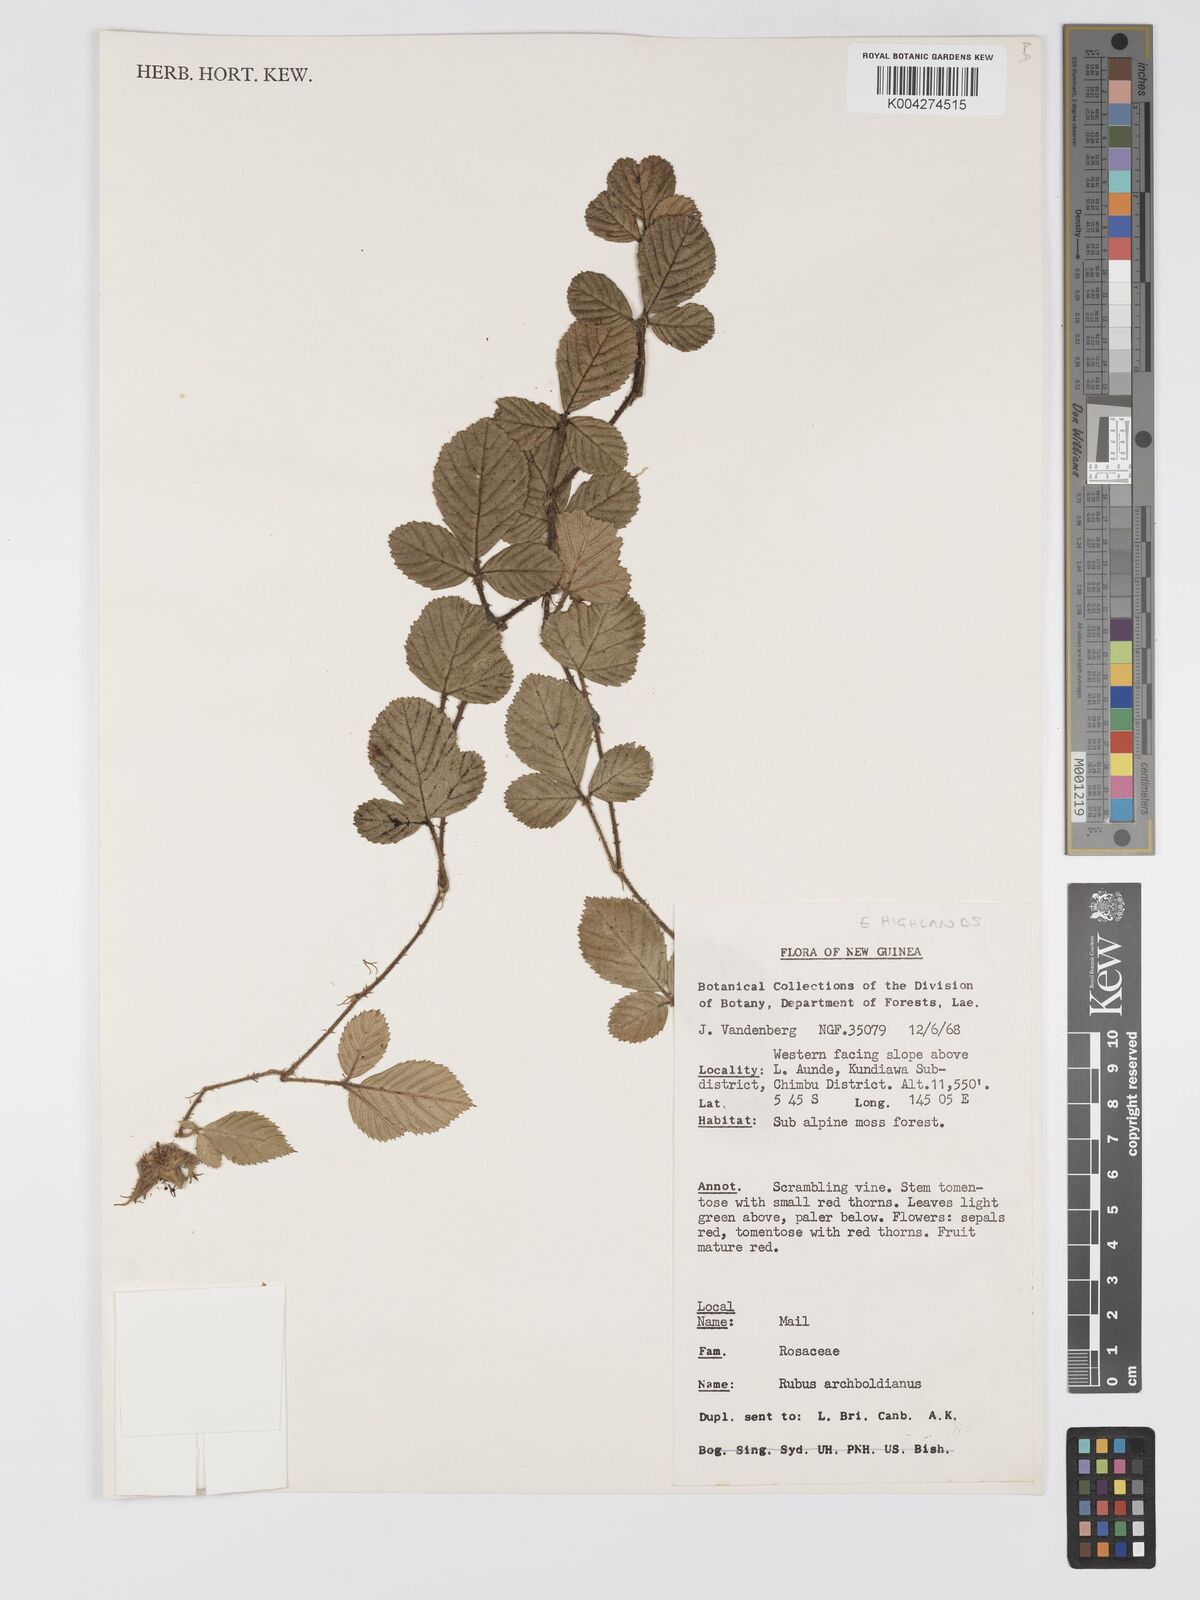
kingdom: Plantae
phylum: Tracheophyta
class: Magnoliopsida
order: Rosales
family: Rosaceae
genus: Rubus
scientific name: Rubus archboldianus
